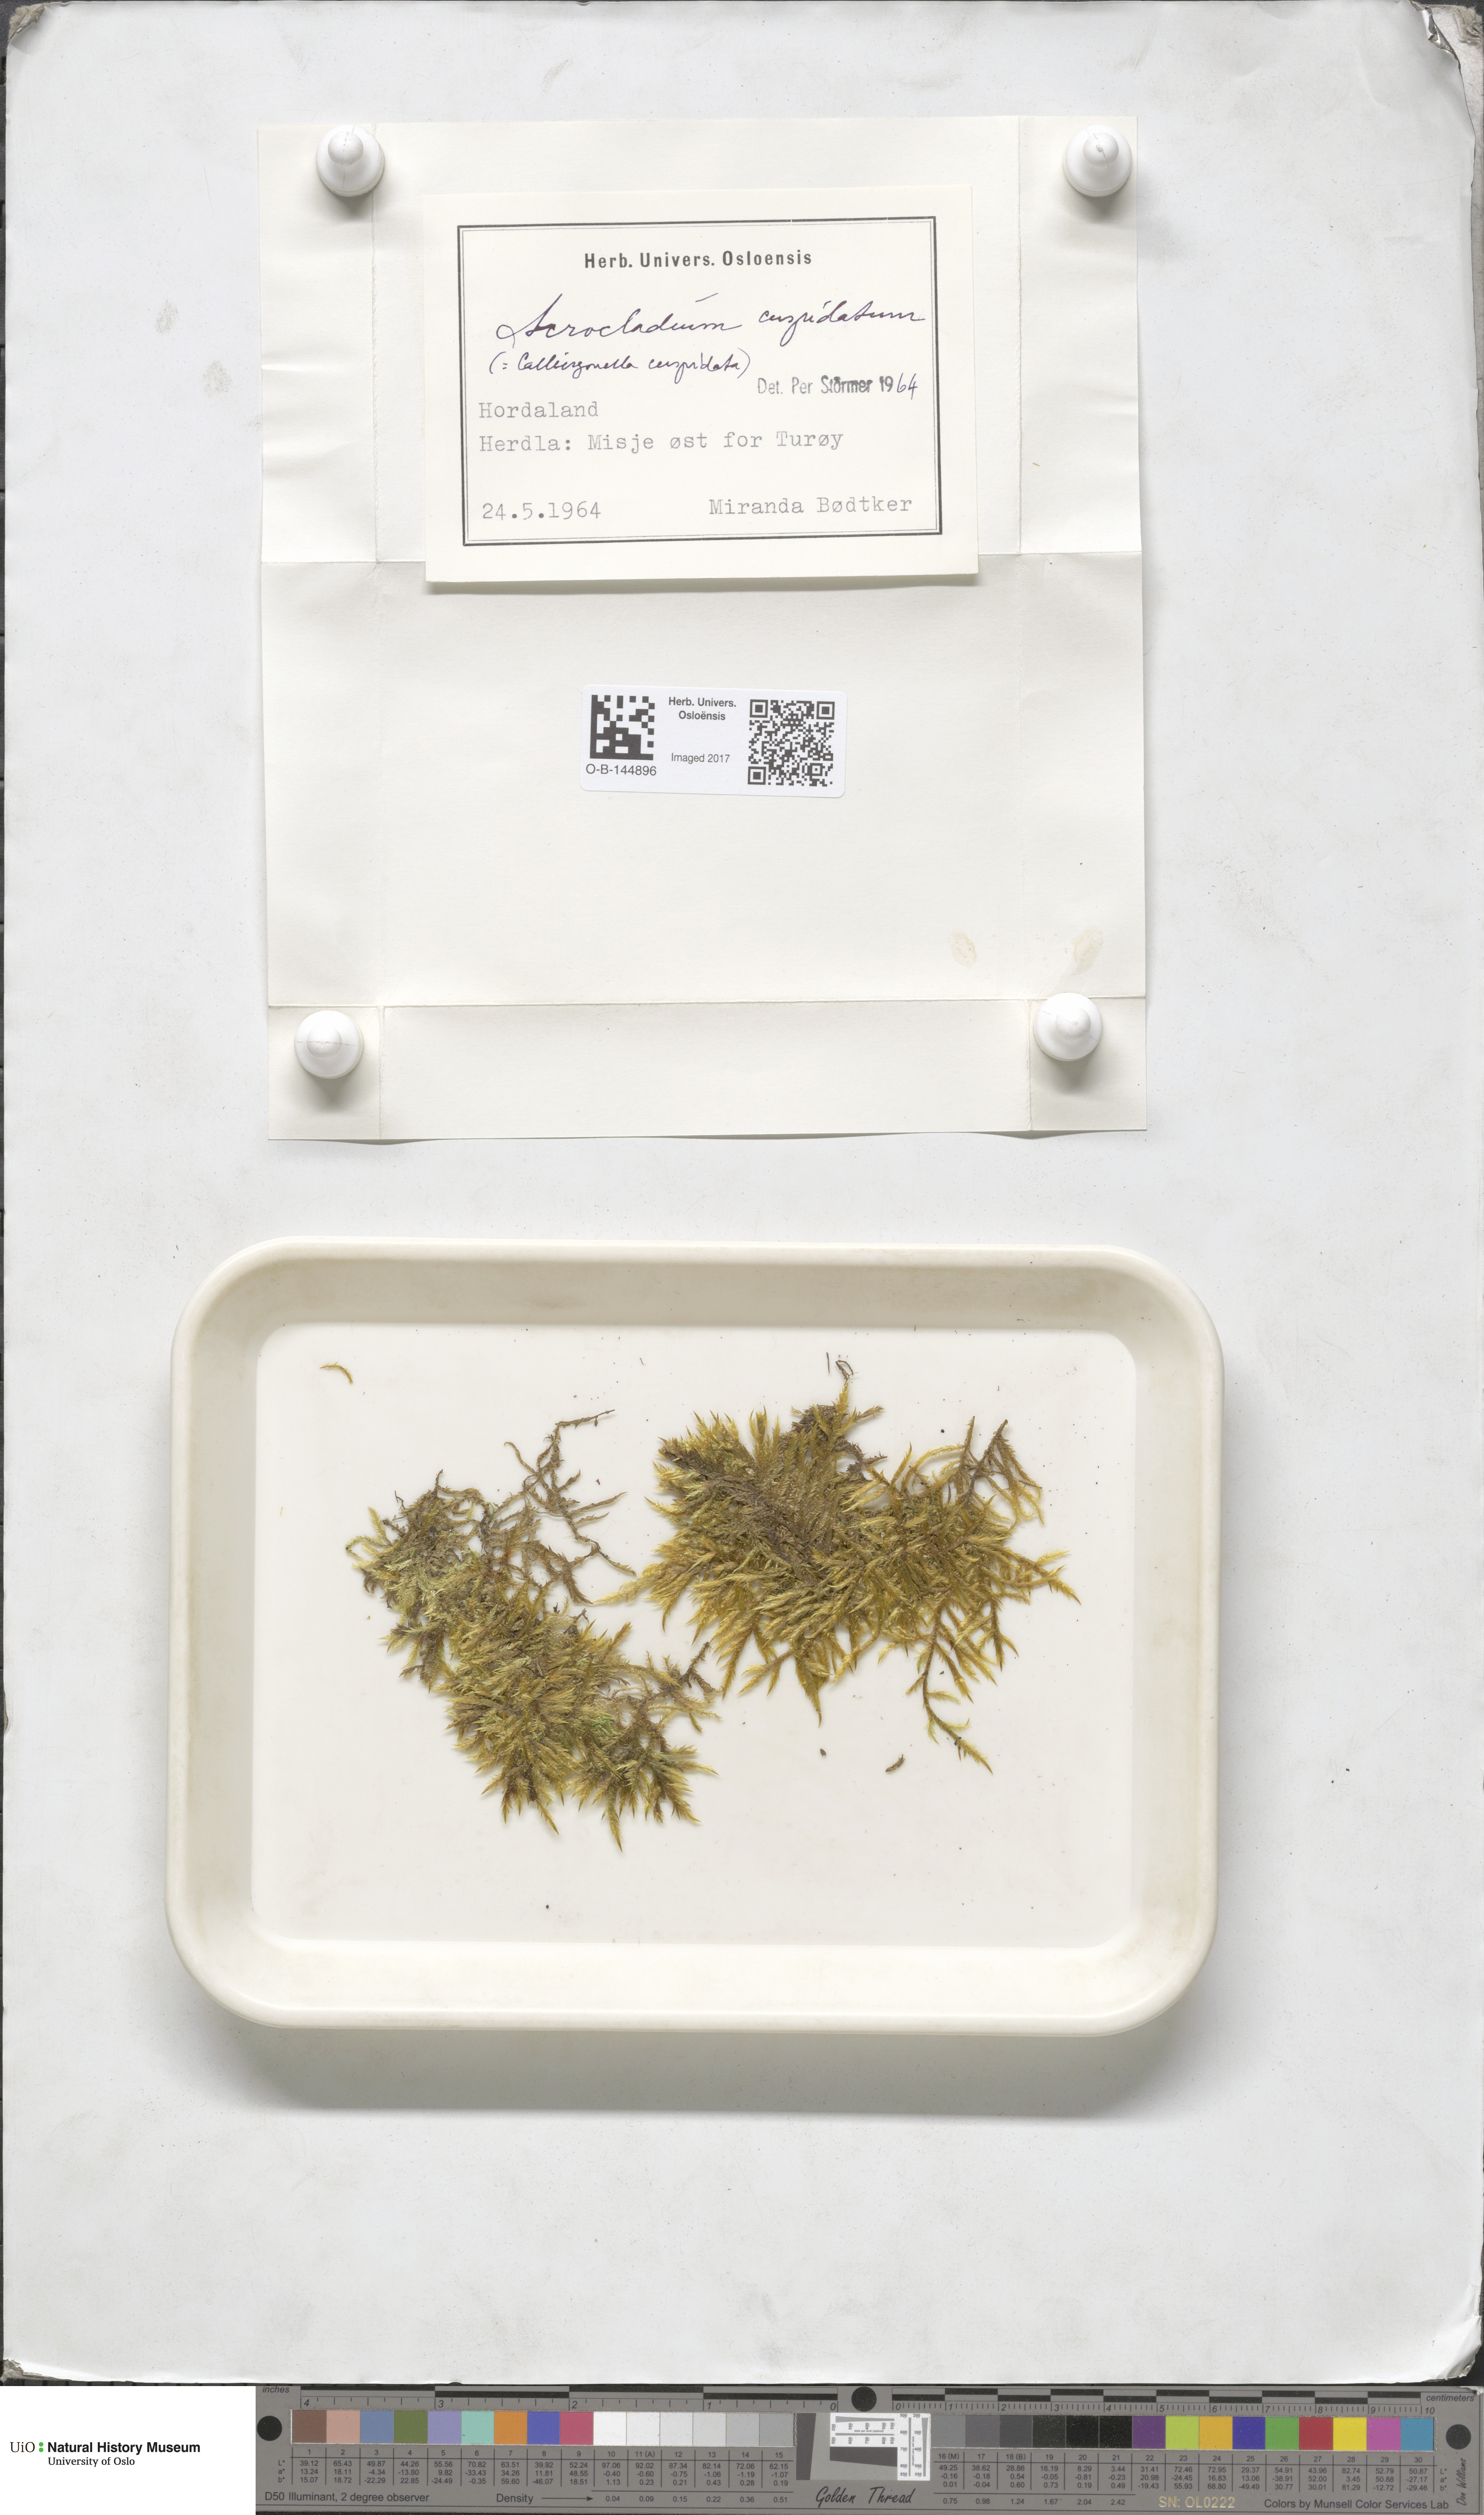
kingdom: Plantae
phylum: Bryophyta
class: Bryopsida
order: Hypnales
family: Pylaisiaceae
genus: Calliergonella
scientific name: Calliergonella cuspidata
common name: Common large wetland moss
